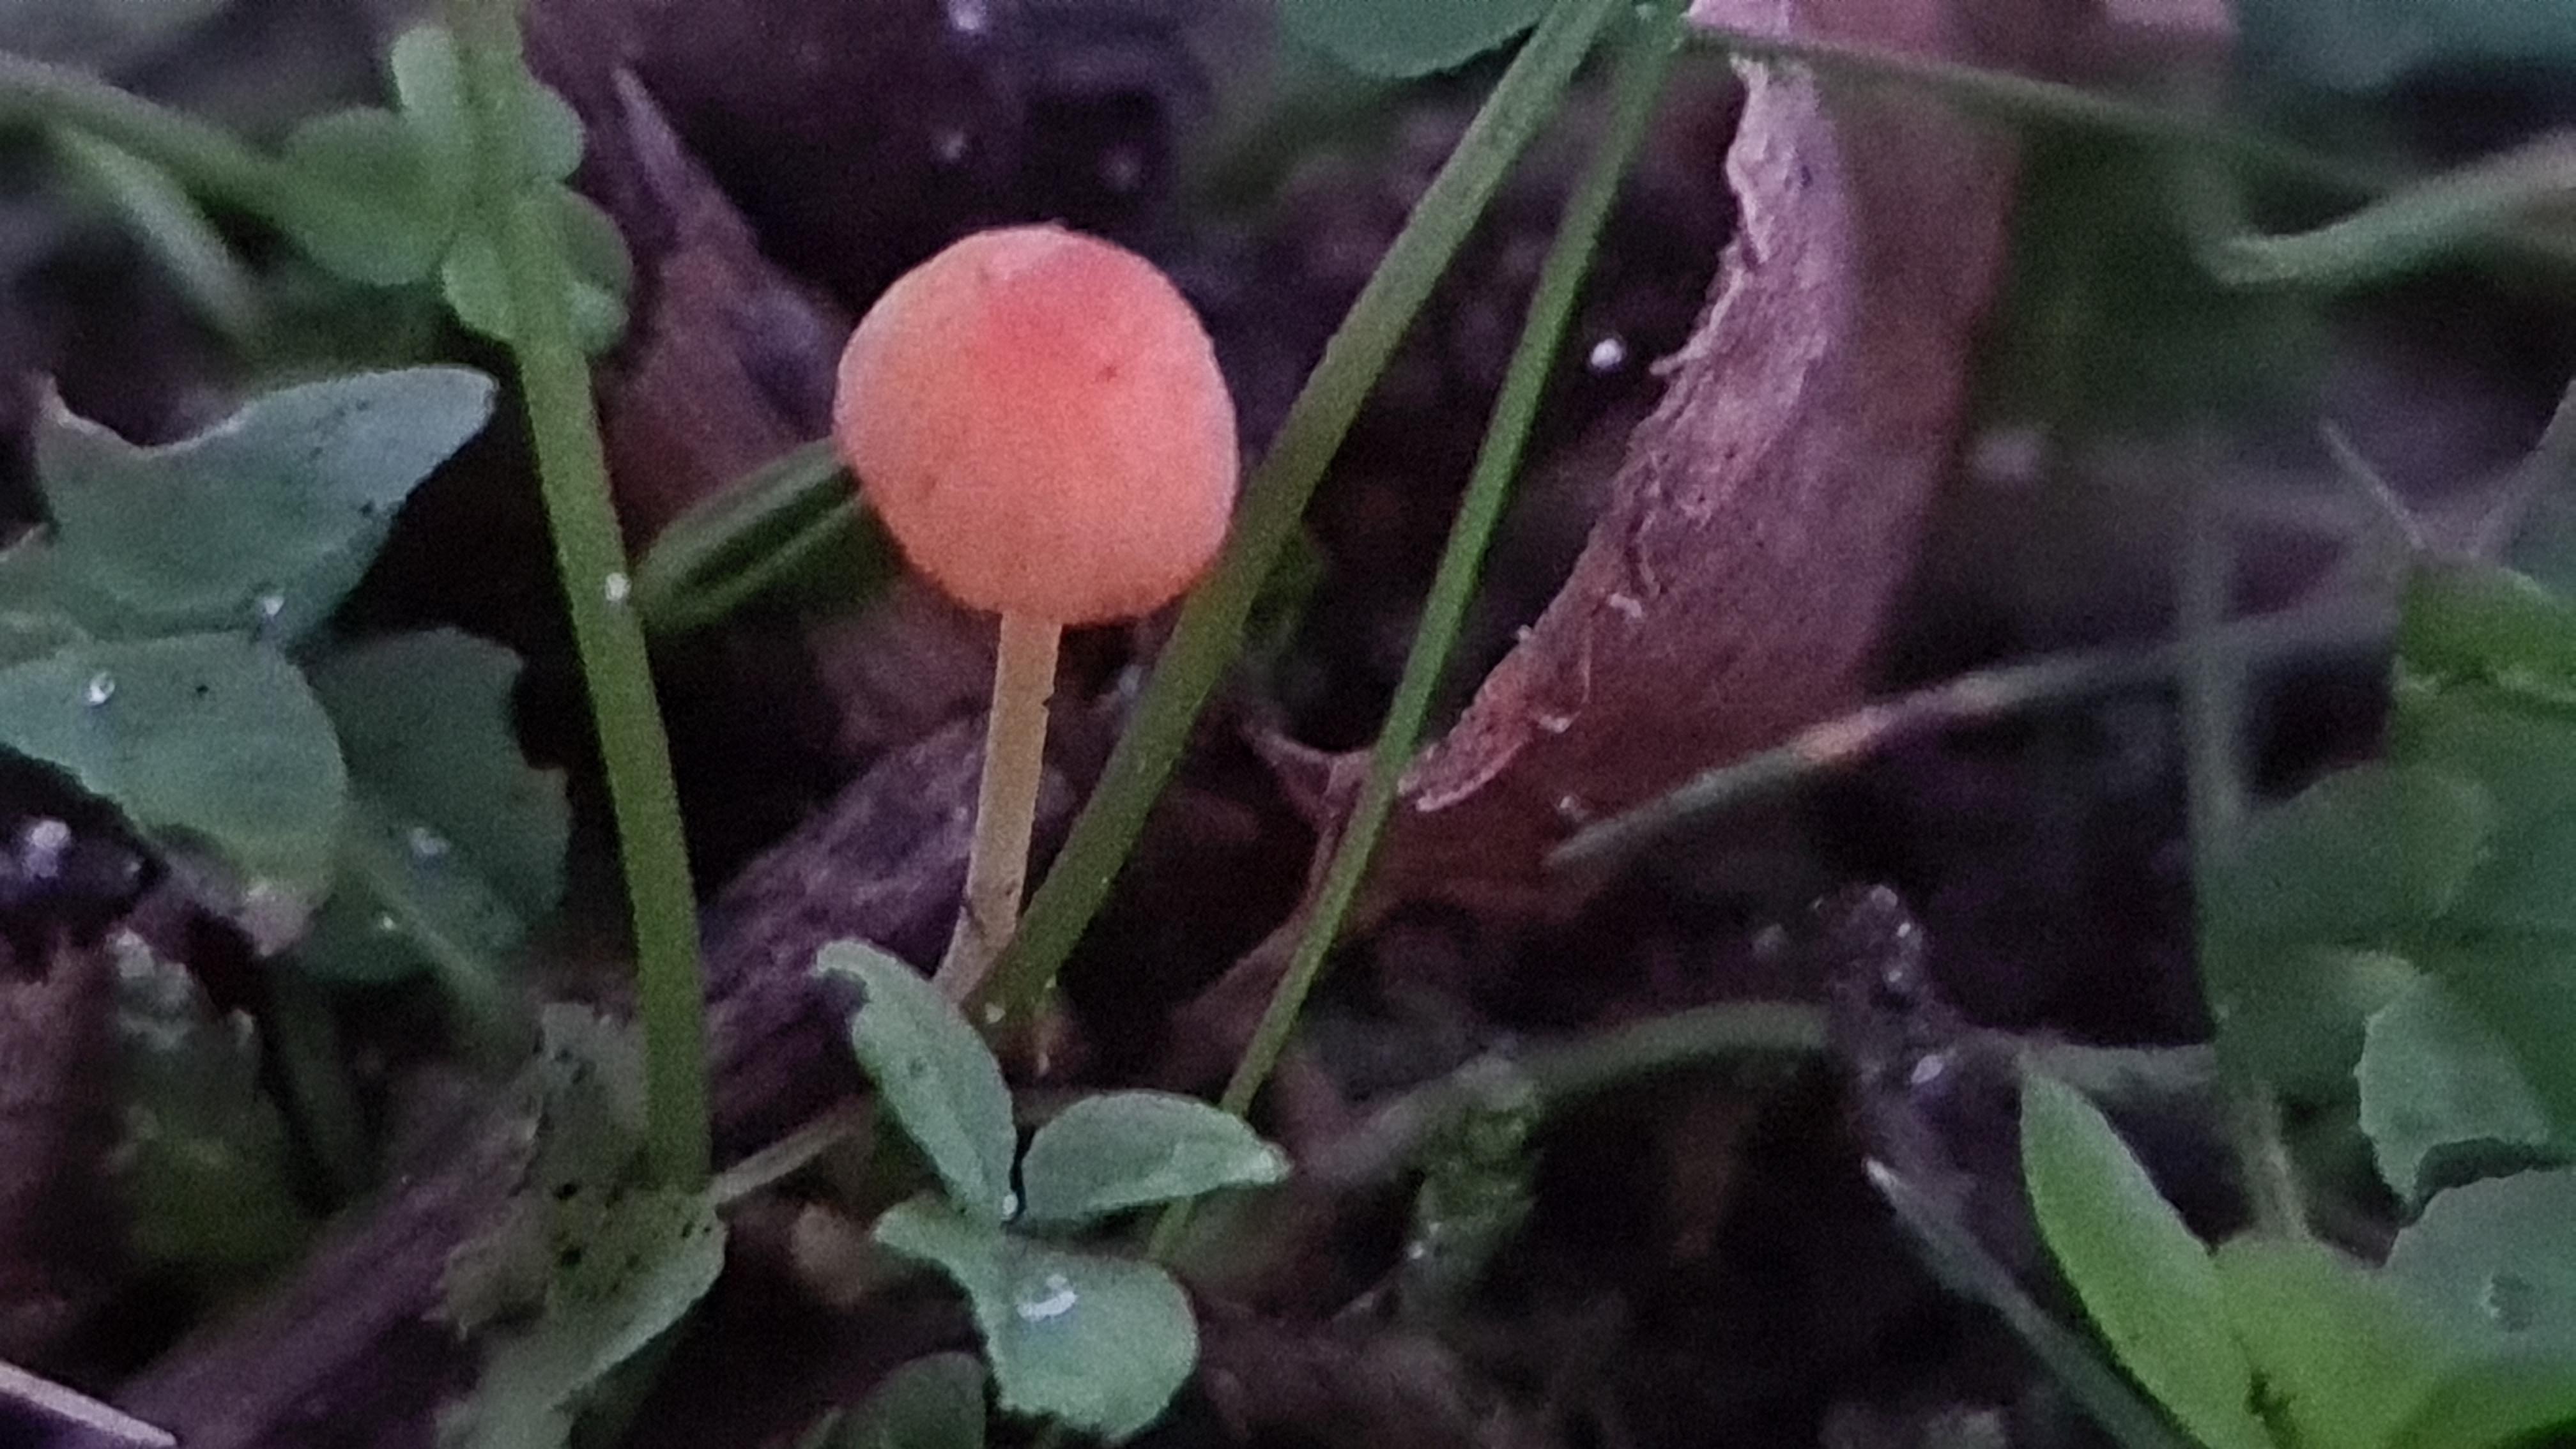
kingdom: Fungi
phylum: Basidiomycota
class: Agaricomycetes
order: Agaricales
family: Mycenaceae
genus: Mycena
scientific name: Mycena acicula
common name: orange huesvamp
